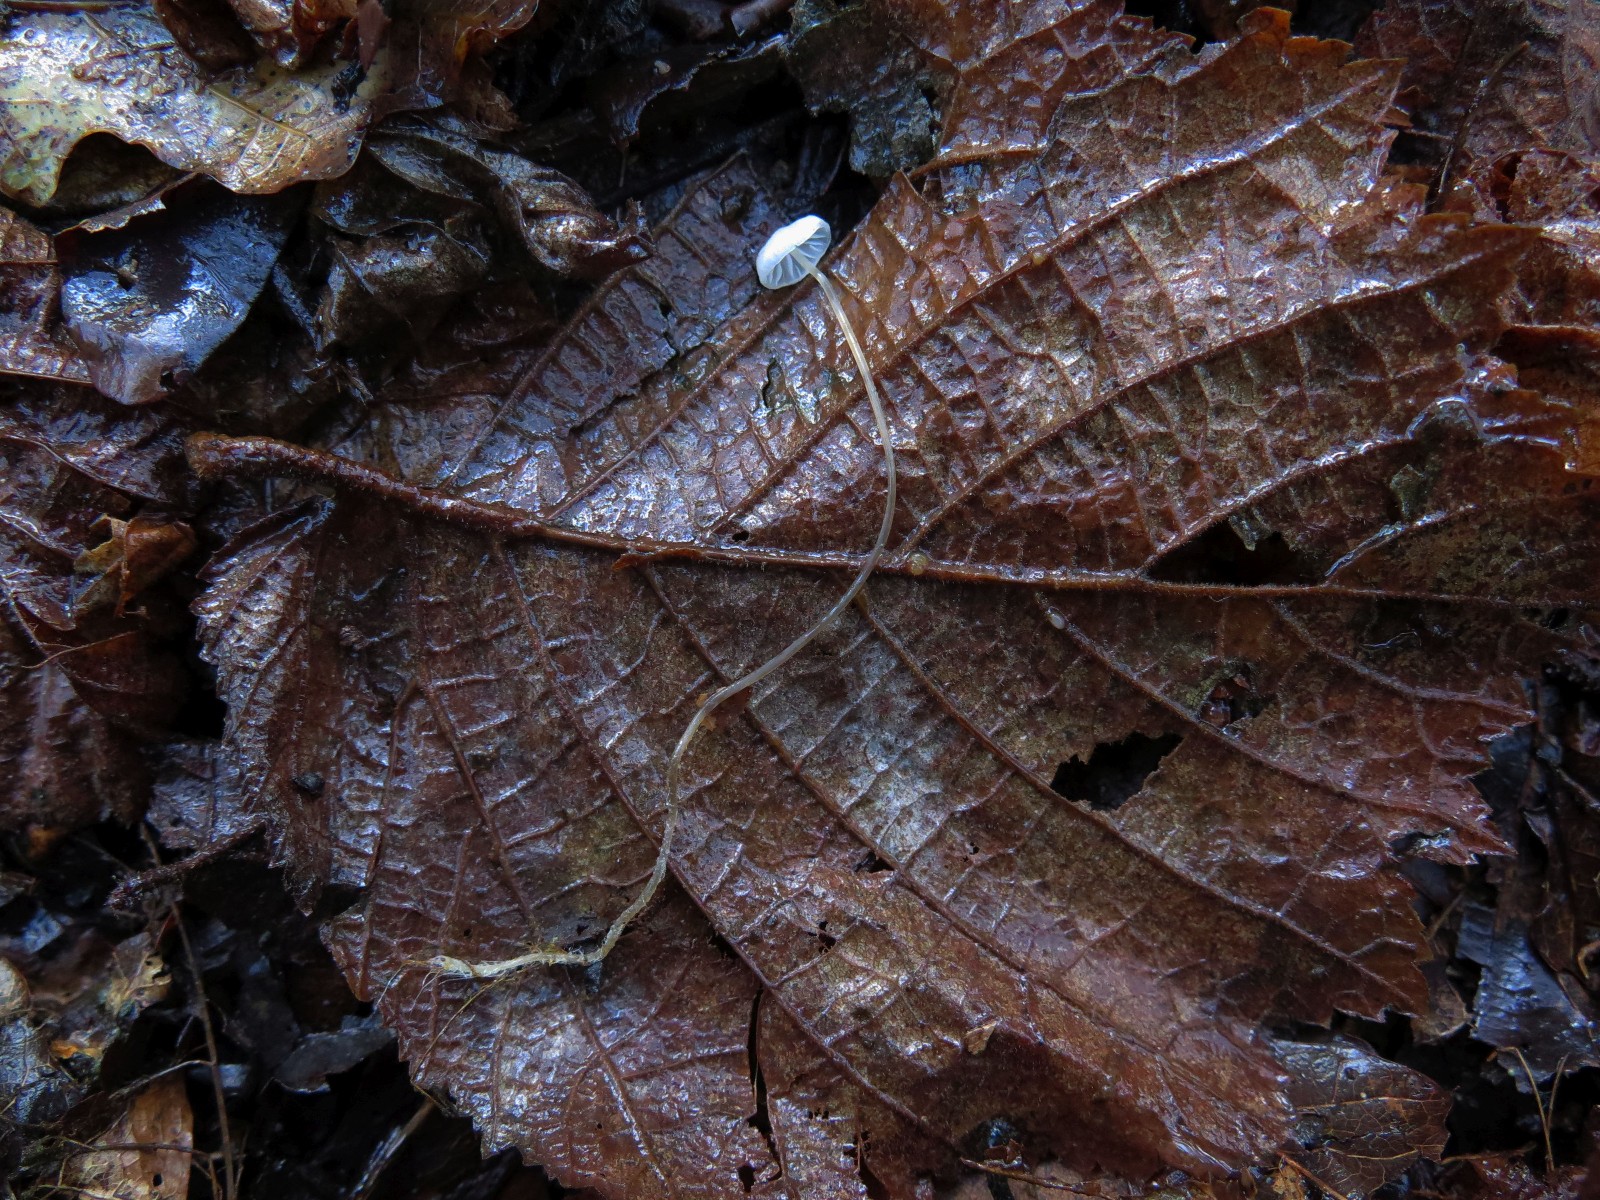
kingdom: Fungi
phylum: Basidiomycota
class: Agaricomycetes
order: Agaricales
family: Mycenaceae
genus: Mycena
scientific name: Mycena
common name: huesvamp
